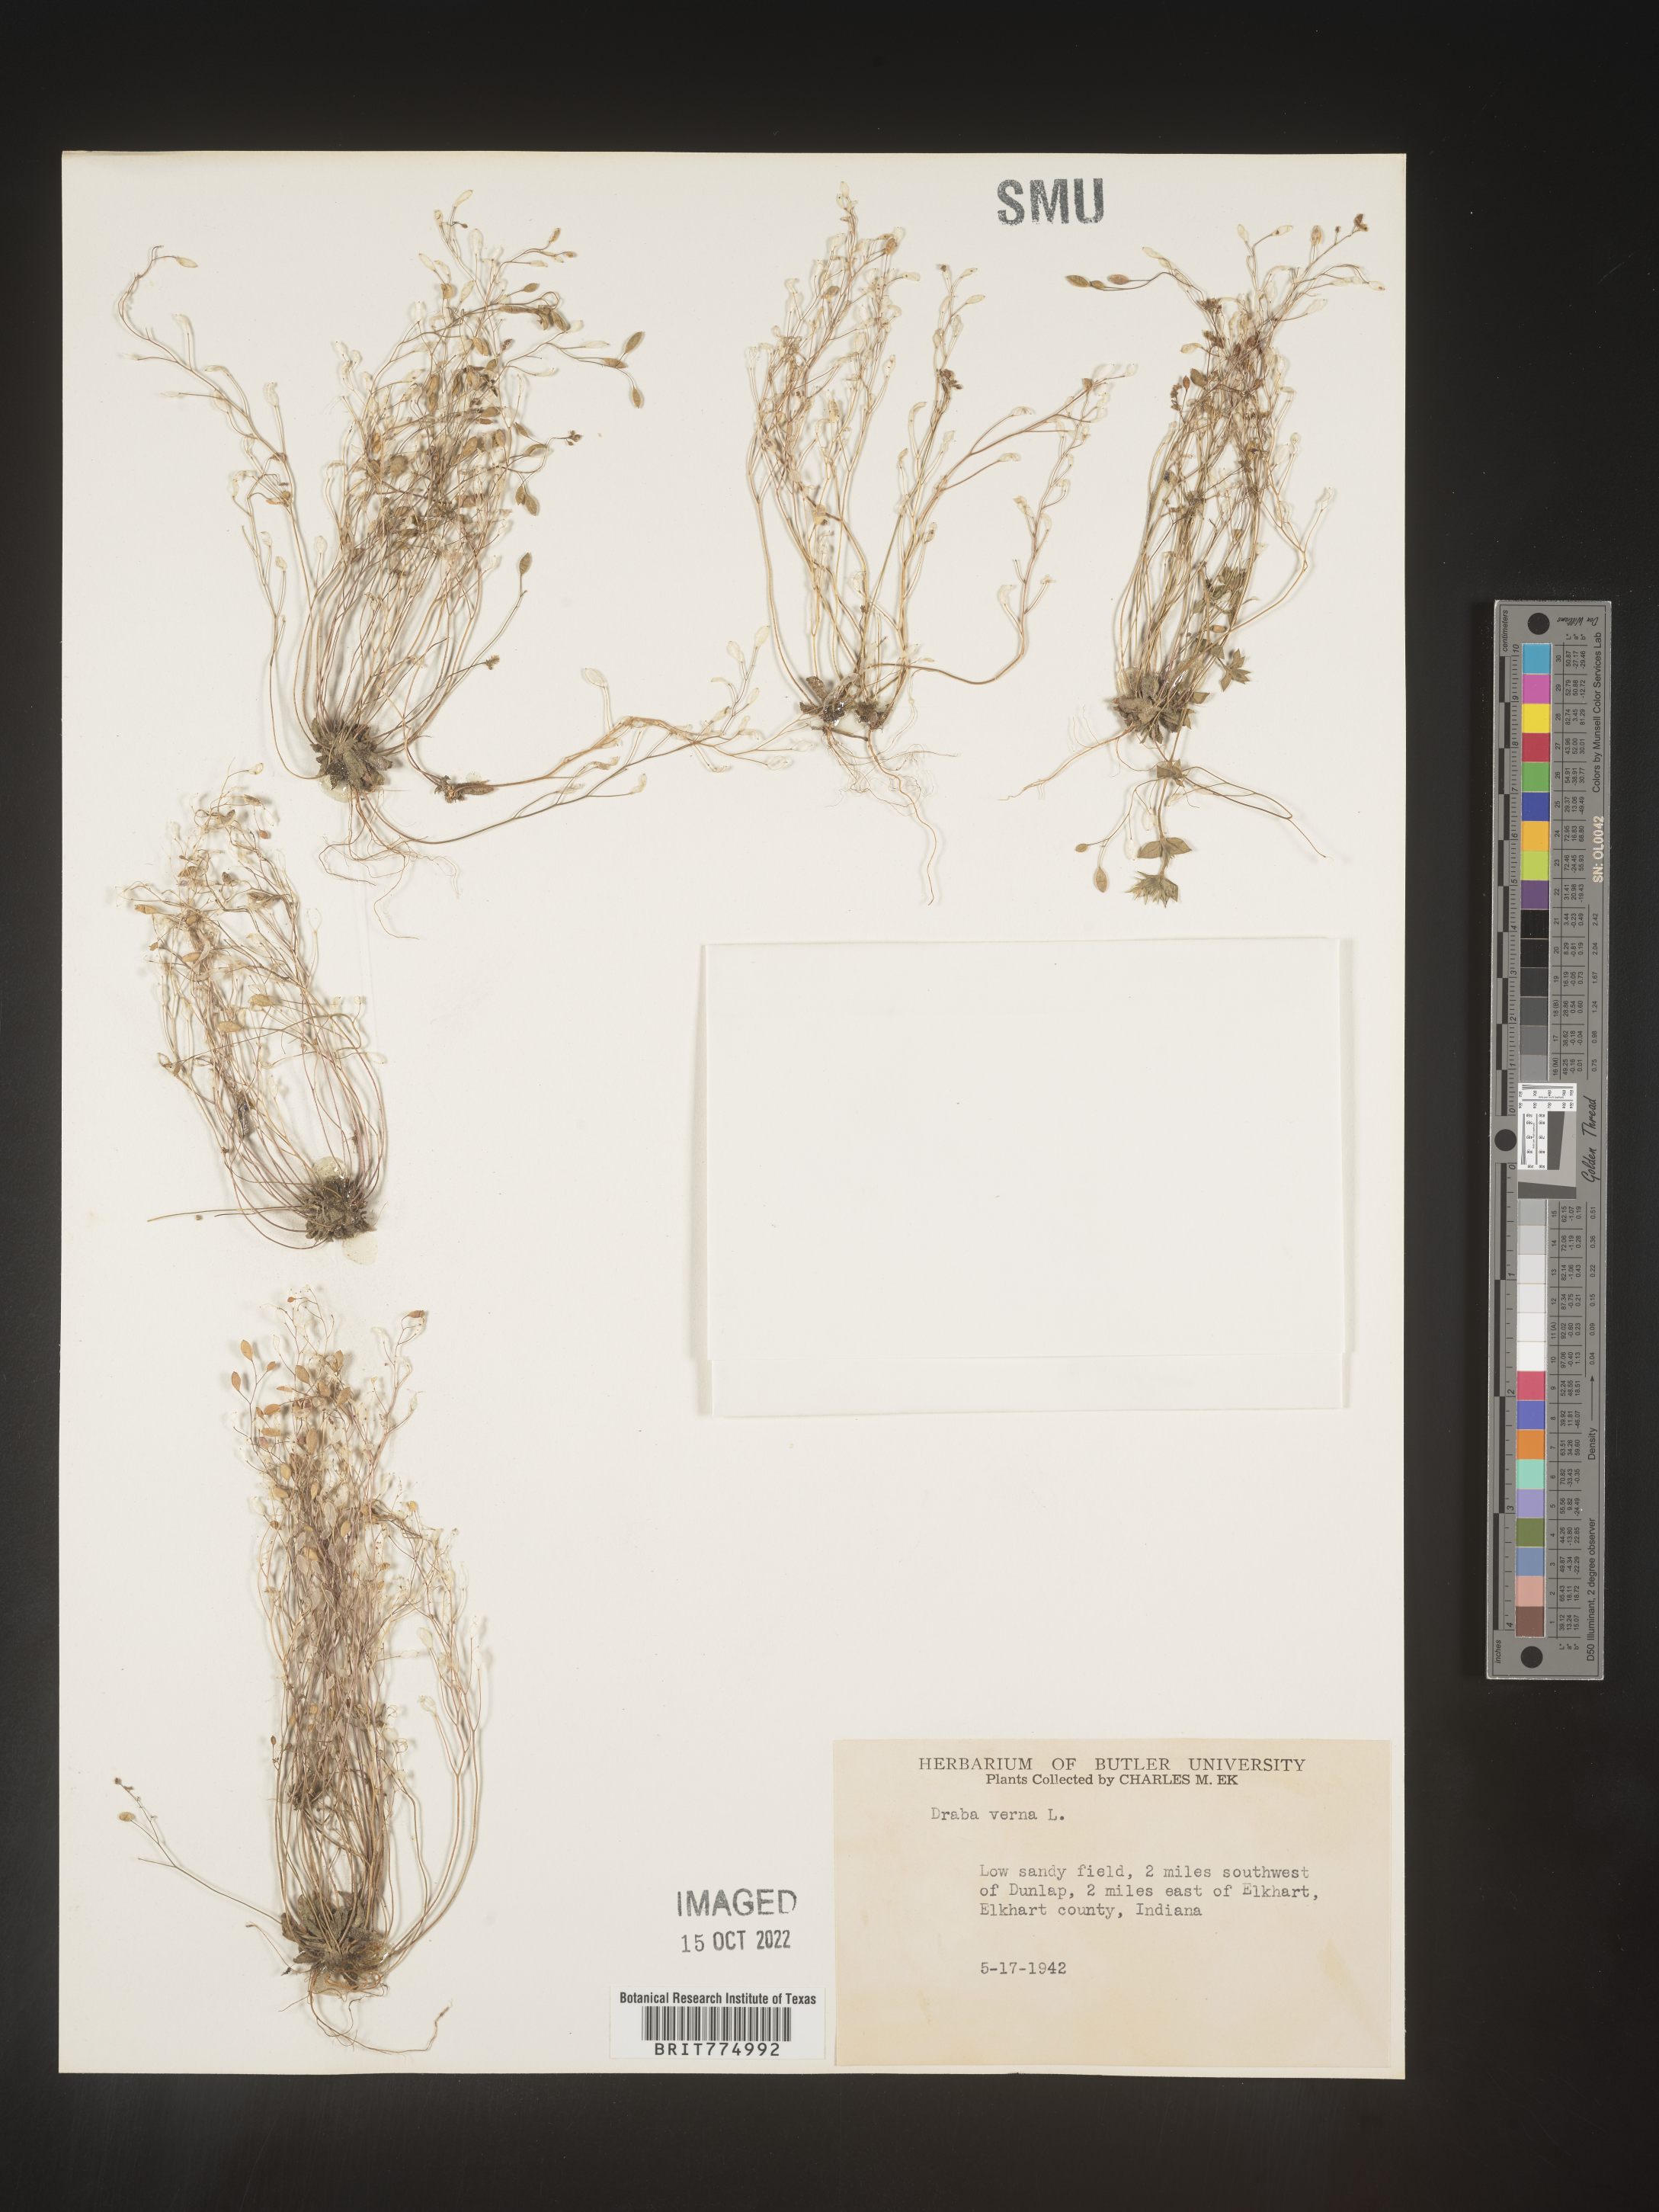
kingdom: Plantae
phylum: Tracheophyta
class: Magnoliopsida
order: Brassicales
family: Brassicaceae
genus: Draba
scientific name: Draba verna
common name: Spring draba
